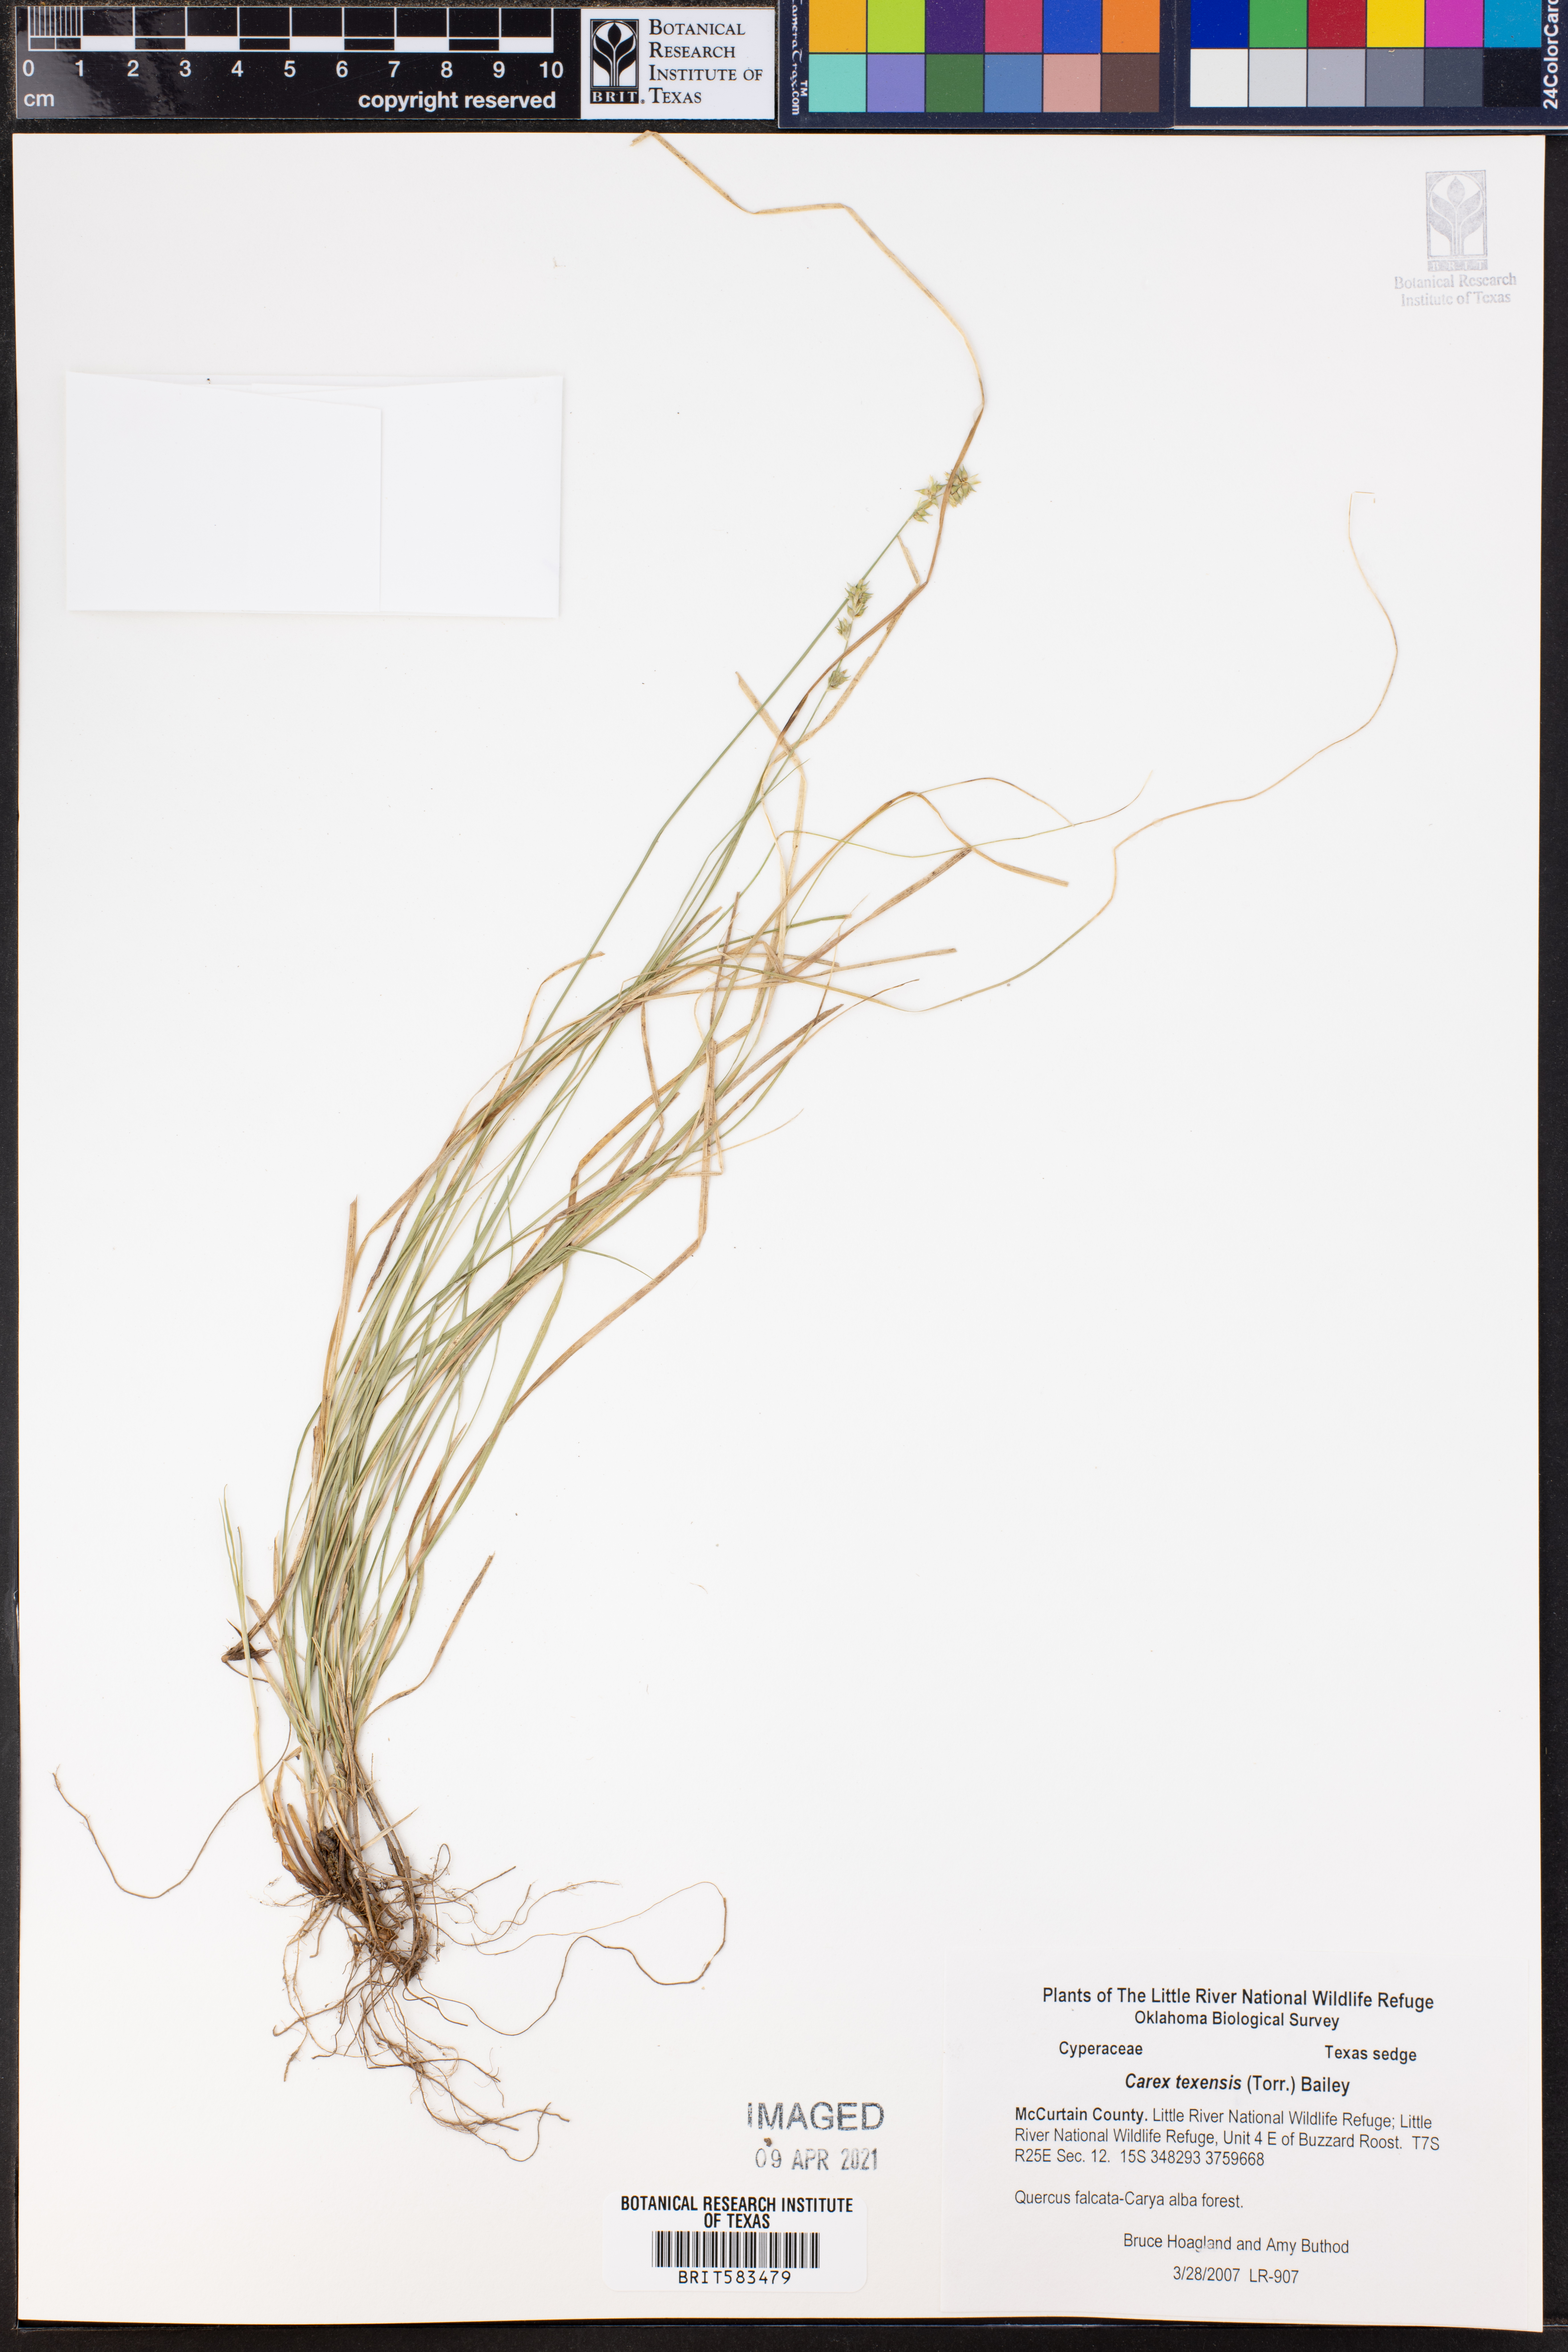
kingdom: Plantae
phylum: Tracheophyta
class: Liliopsida
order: Poales
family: Cyperaceae
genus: Carex
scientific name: Carex texensis
